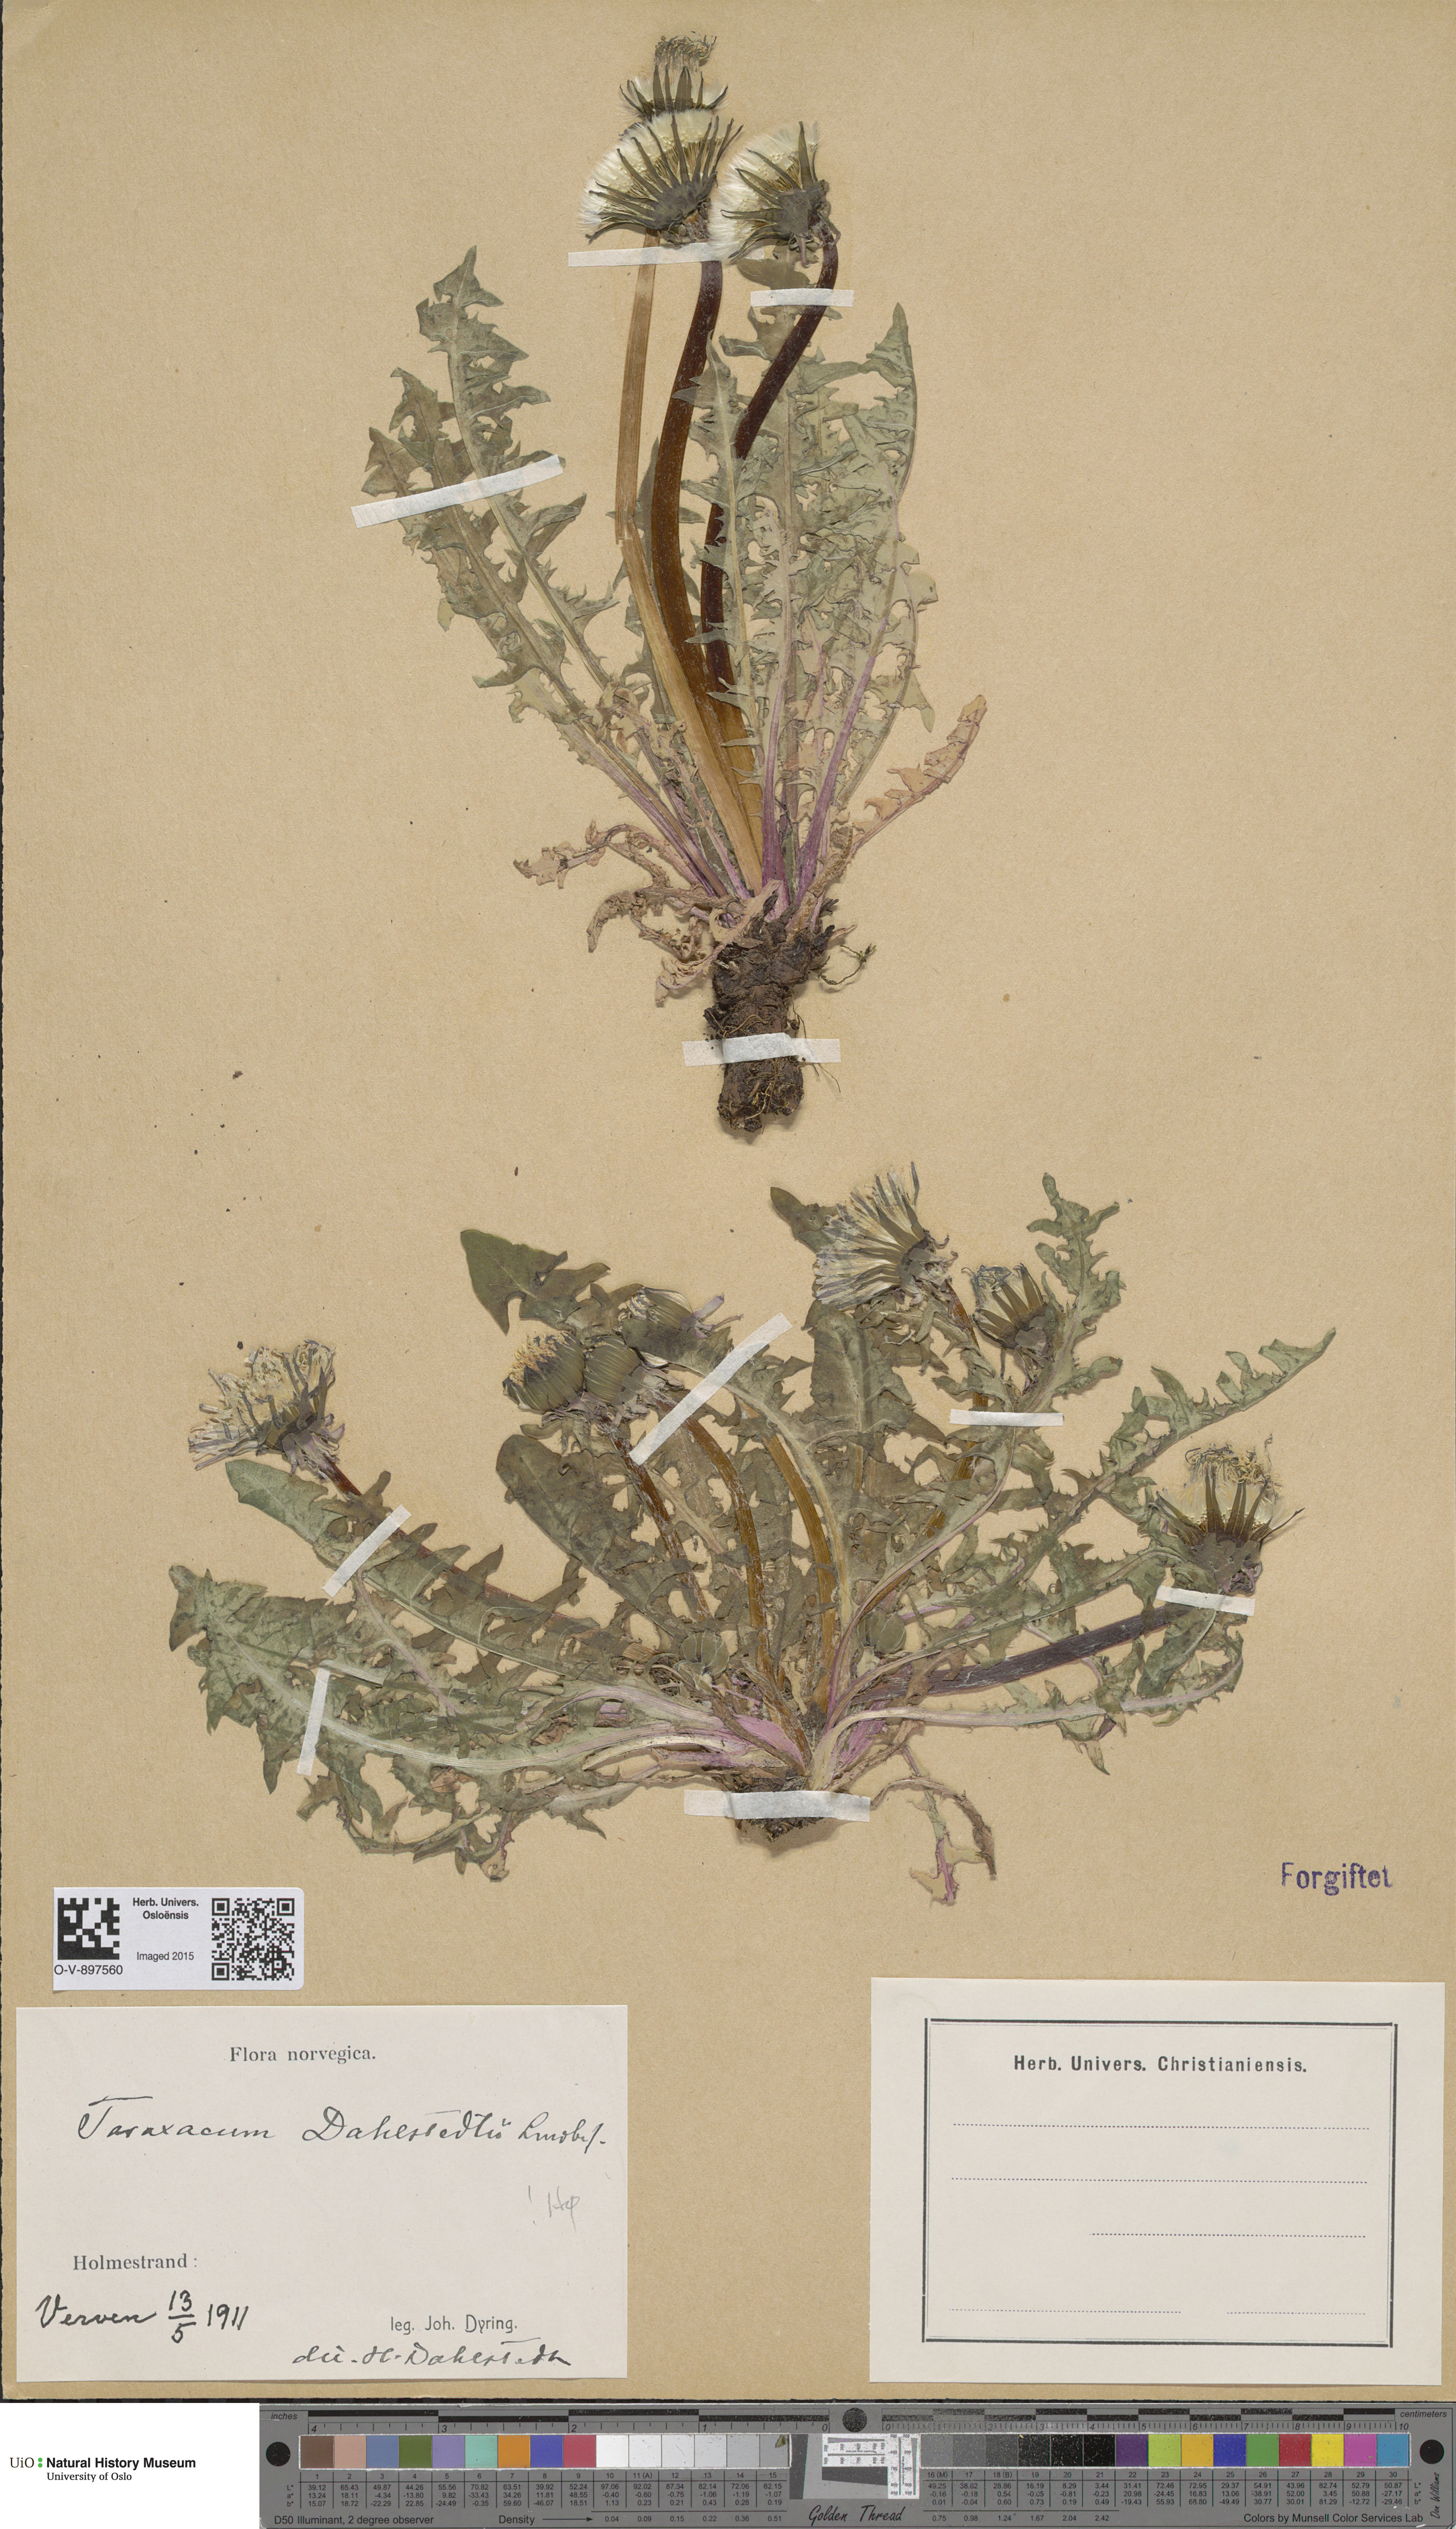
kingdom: Plantae
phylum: Tracheophyta
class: Magnoliopsida
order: Asterales
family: Asteraceae
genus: Taraxacum
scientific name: Taraxacum stenoglossum
